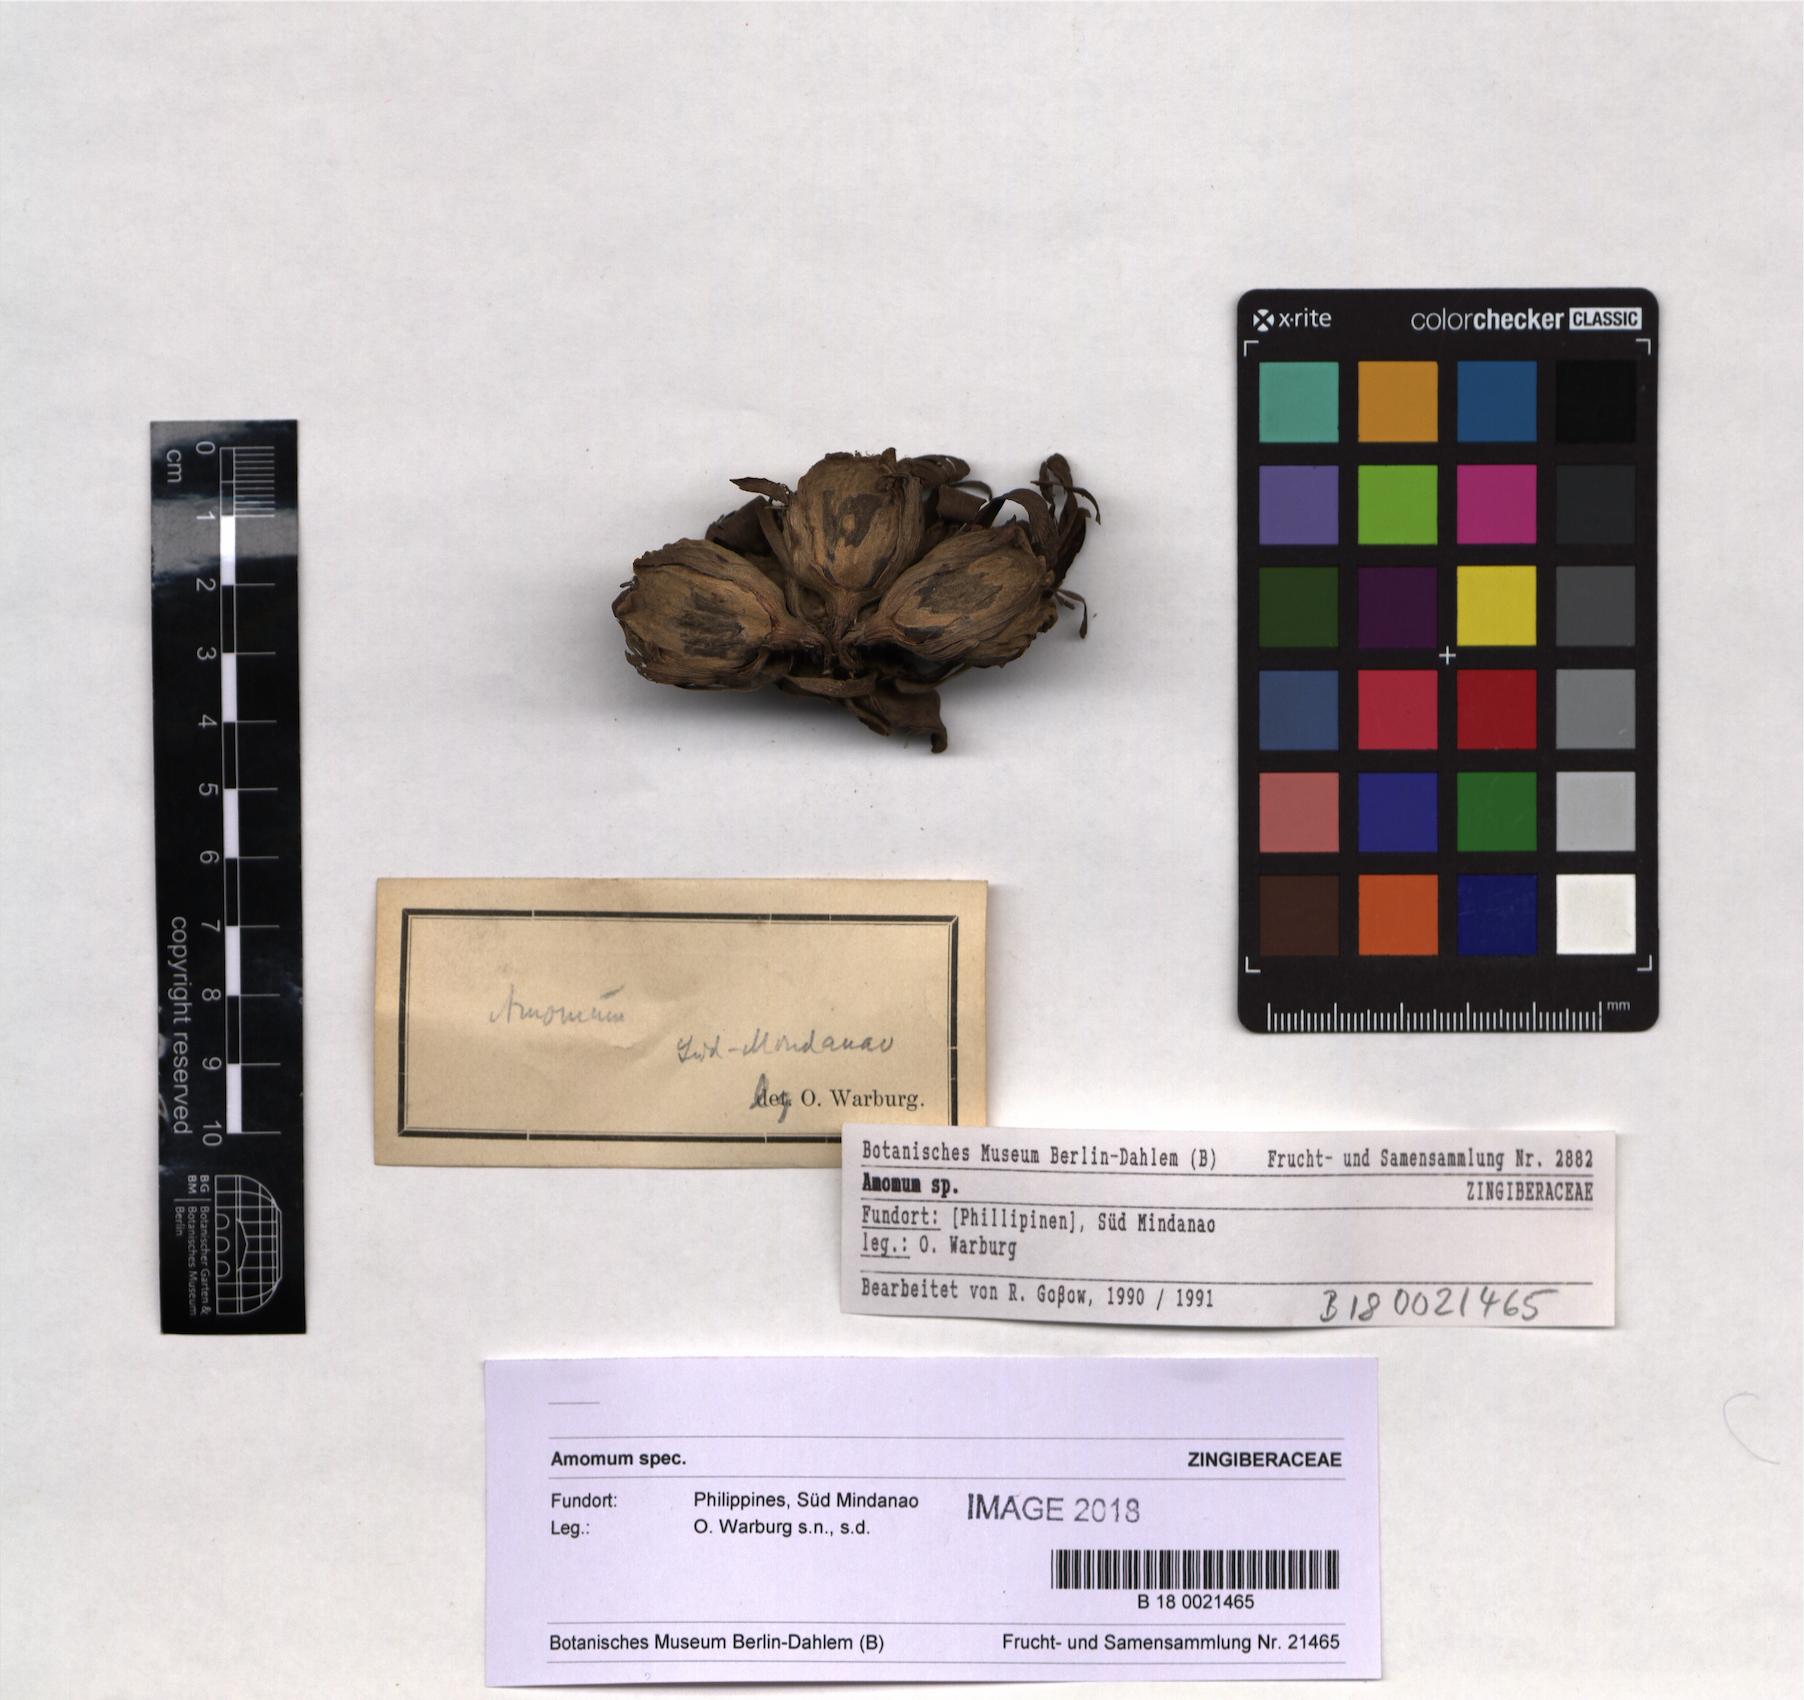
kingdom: Plantae
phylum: Tracheophyta
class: Liliopsida
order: Zingiberales
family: Zingiberaceae
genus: Amomum
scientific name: Amomum
